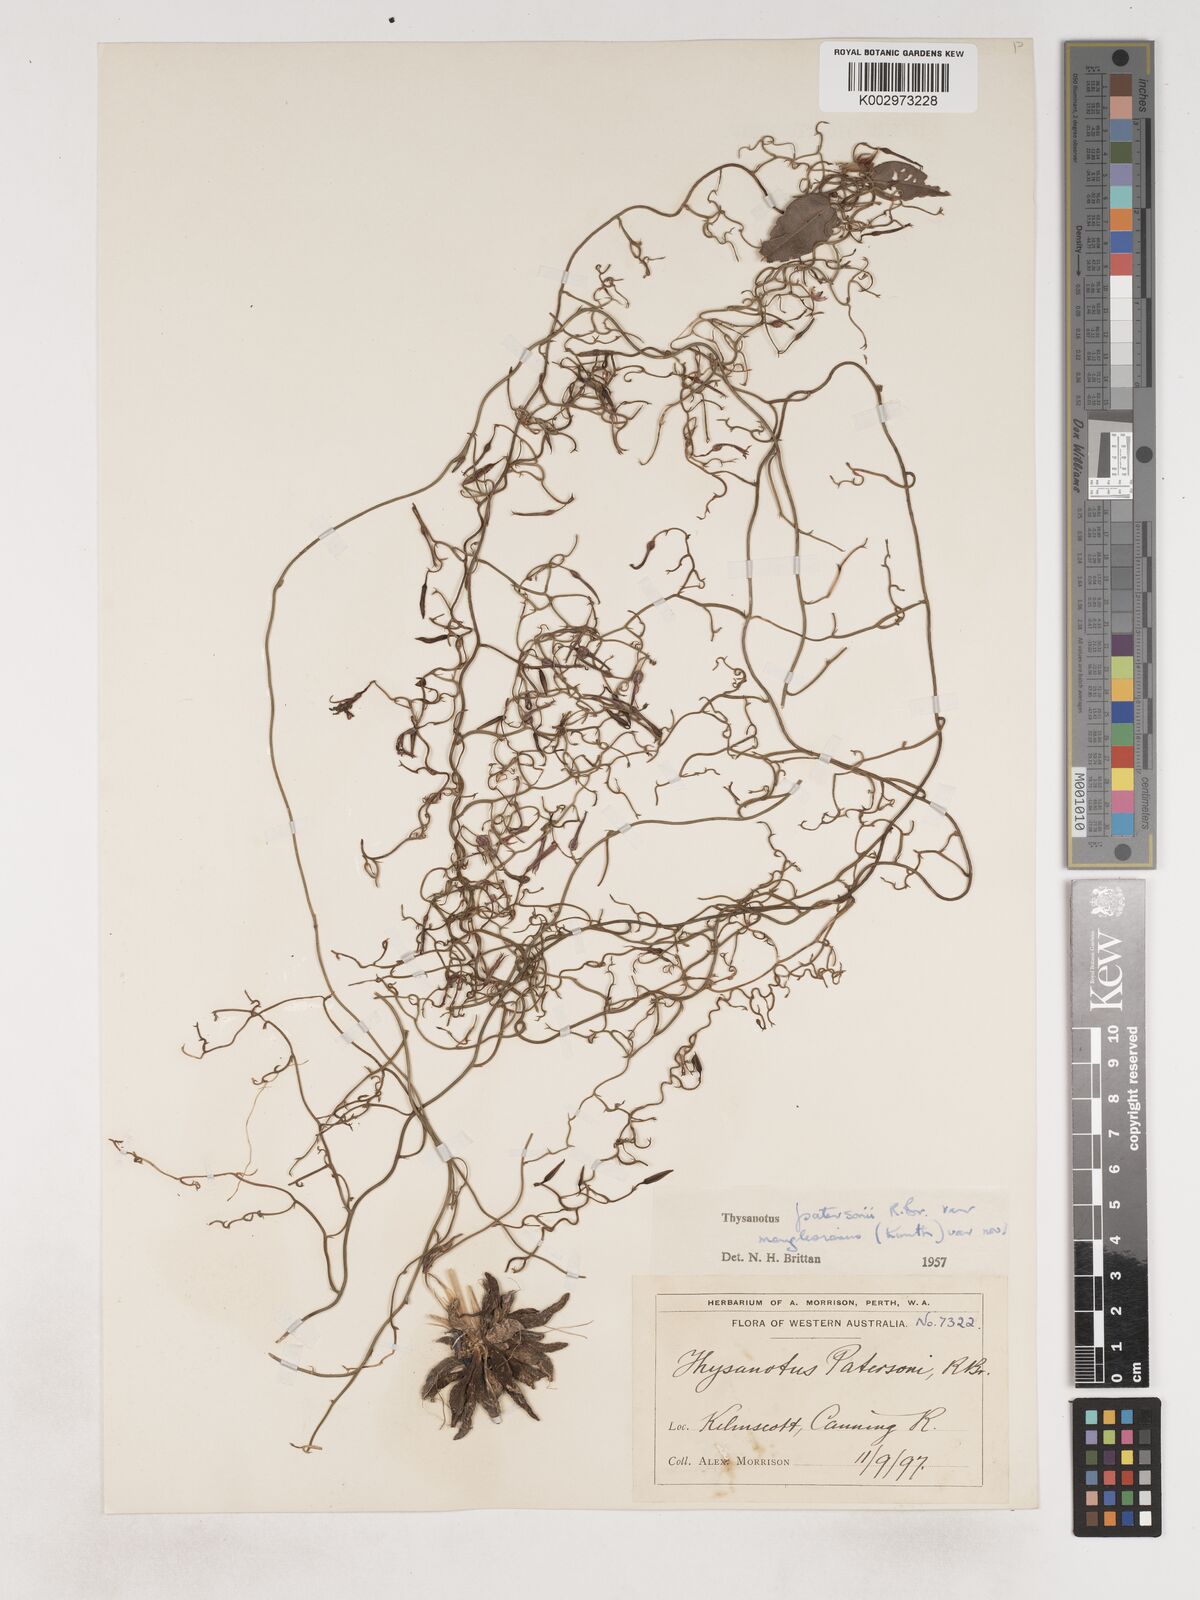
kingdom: Plantae
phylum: Tracheophyta
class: Liliopsida
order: Asparagales
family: Asparagaceae
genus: Thysanotus
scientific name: Thysanotus manglesianus
